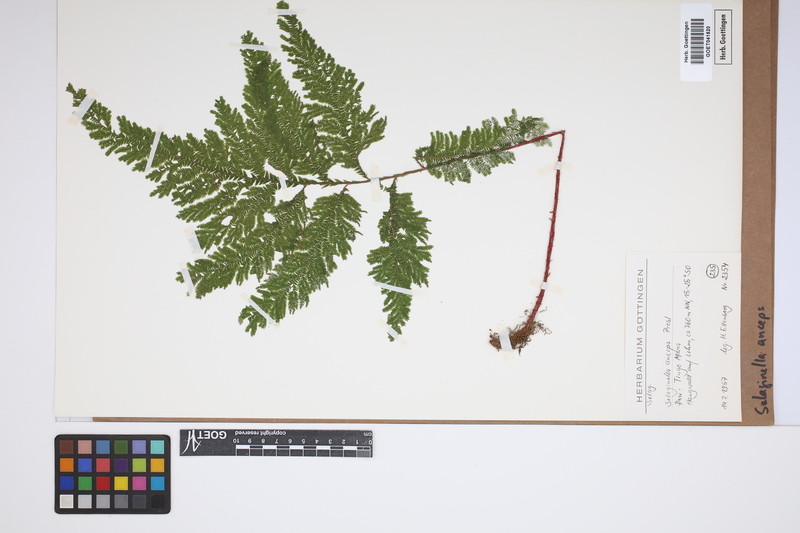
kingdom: Plantae
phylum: Tracheophyta
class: Lycopodiopsida
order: Selaginellales
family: Selaginellaceae
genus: Selaginella
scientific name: Selaginella anceps
